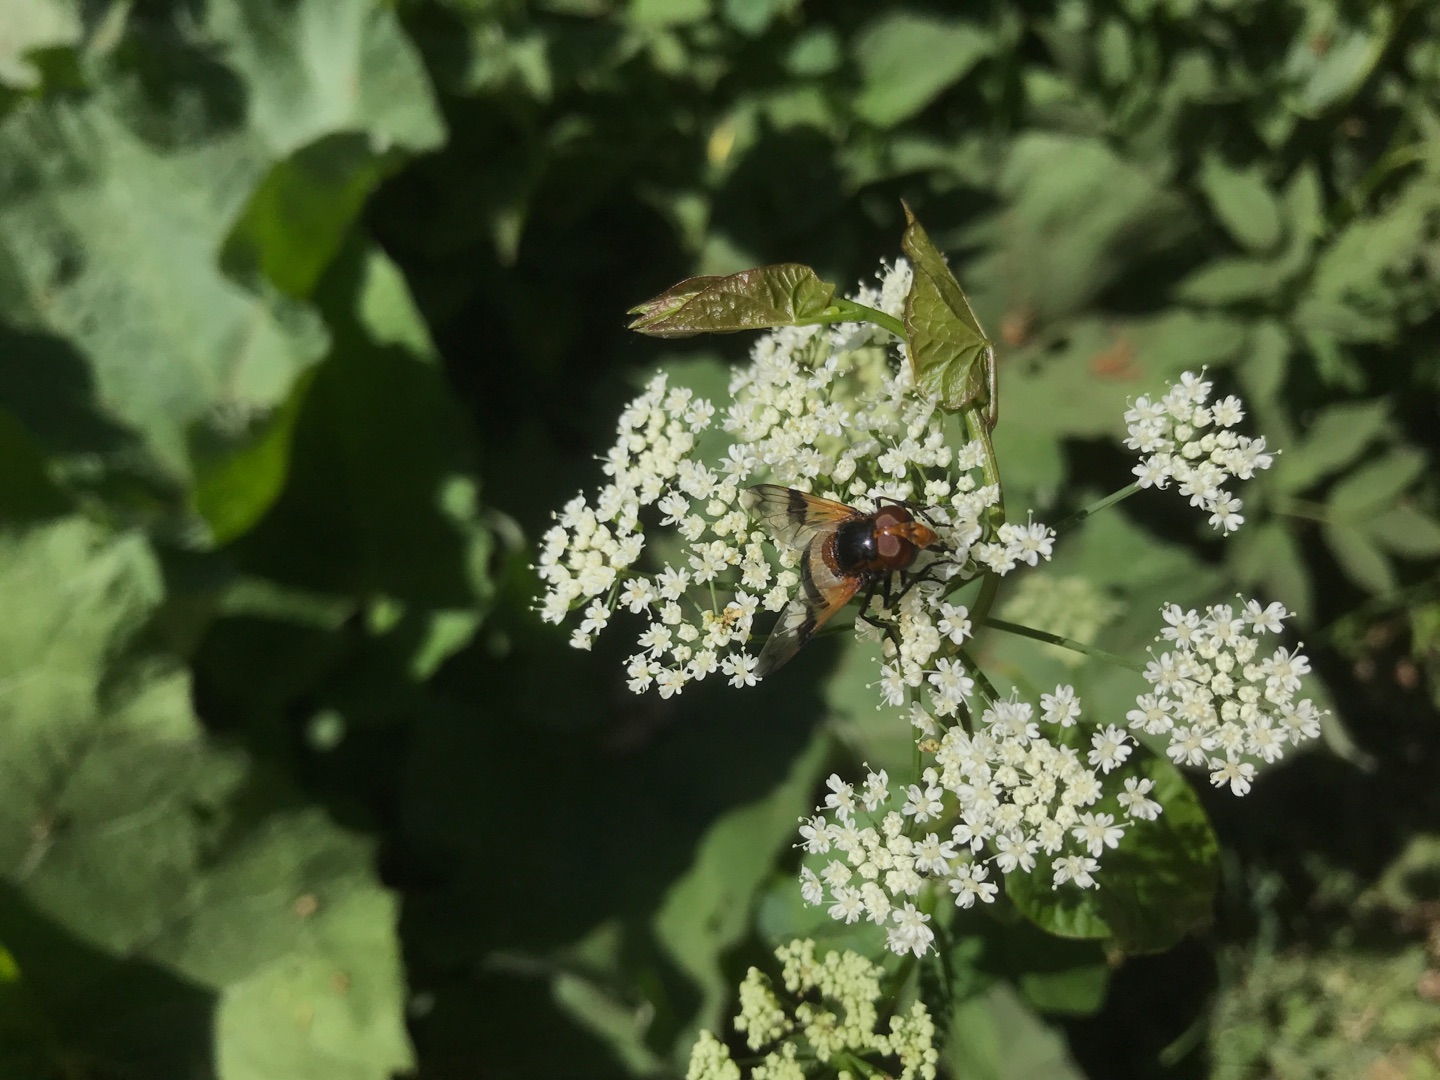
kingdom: Animalia
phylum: Arthropoda
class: Insecta
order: Diptera
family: Syrphidae
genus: Volucella
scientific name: Volucella pellucens
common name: Hvidbåndet humlesvirreflue
